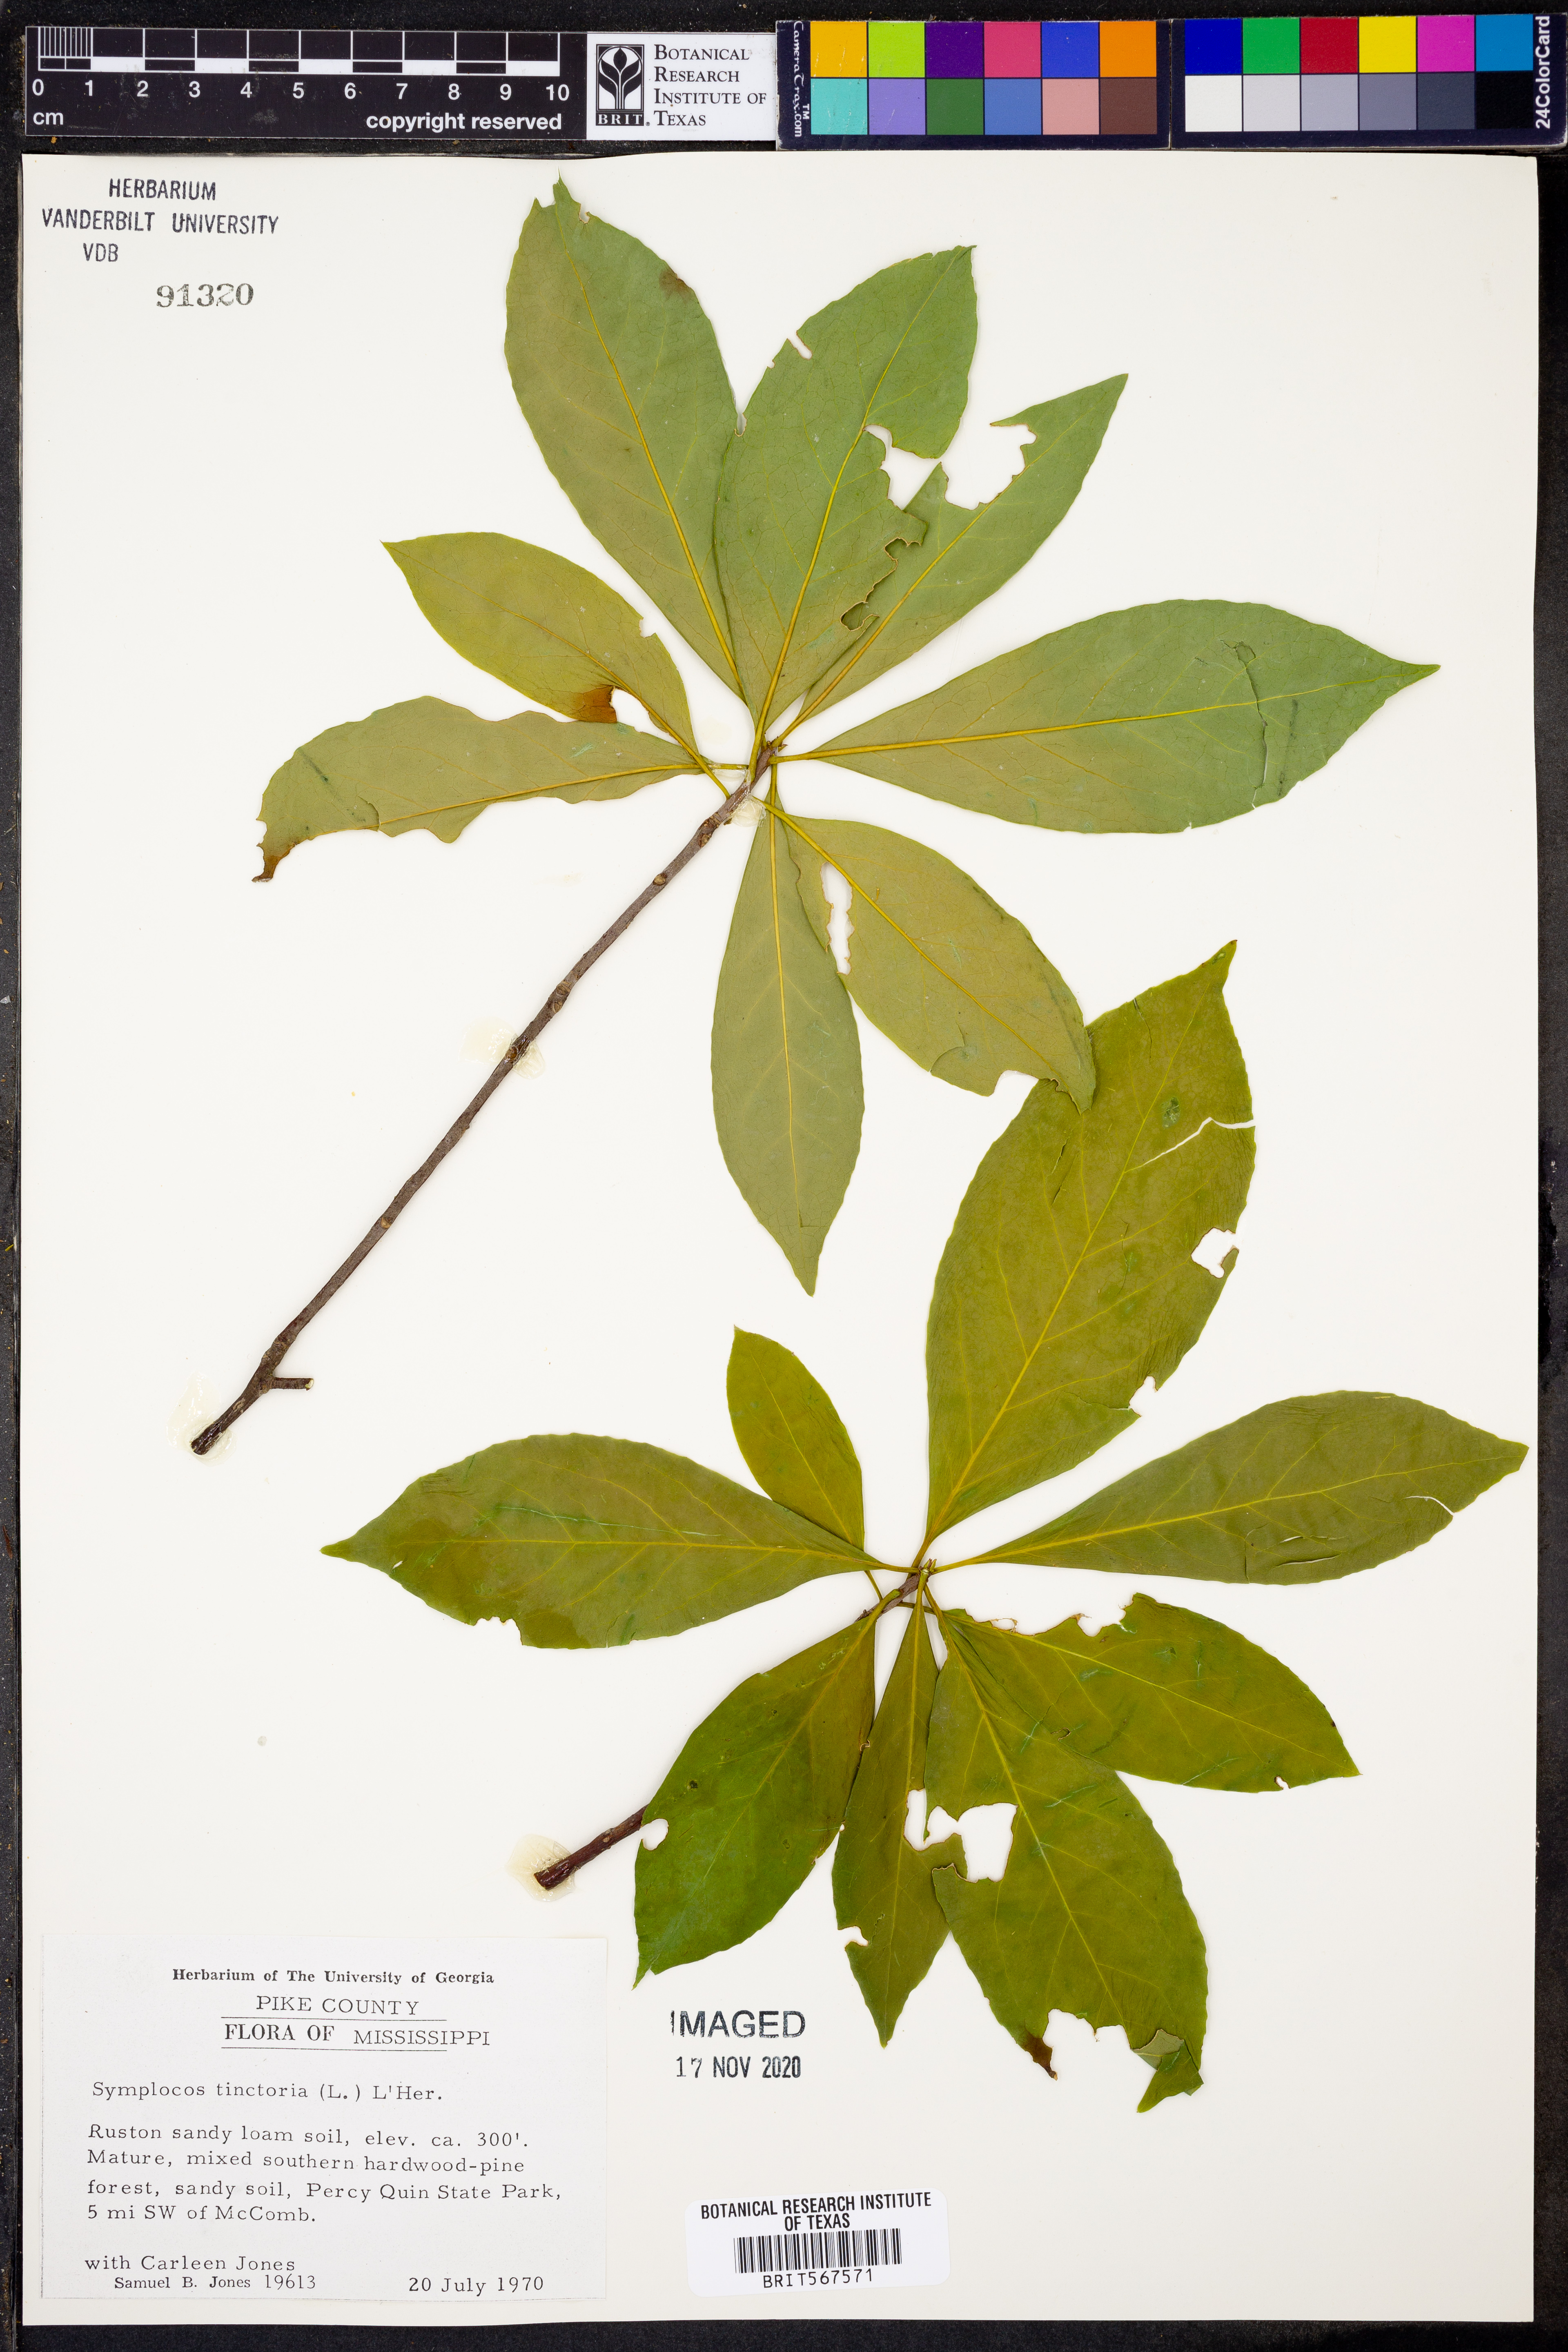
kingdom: Plantae
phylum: Tracheophyta
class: Magnoliopsida
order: Ericales
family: Symplocaceae
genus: Symplocos
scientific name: Symplocos tinctoria
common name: Horse-sugar
